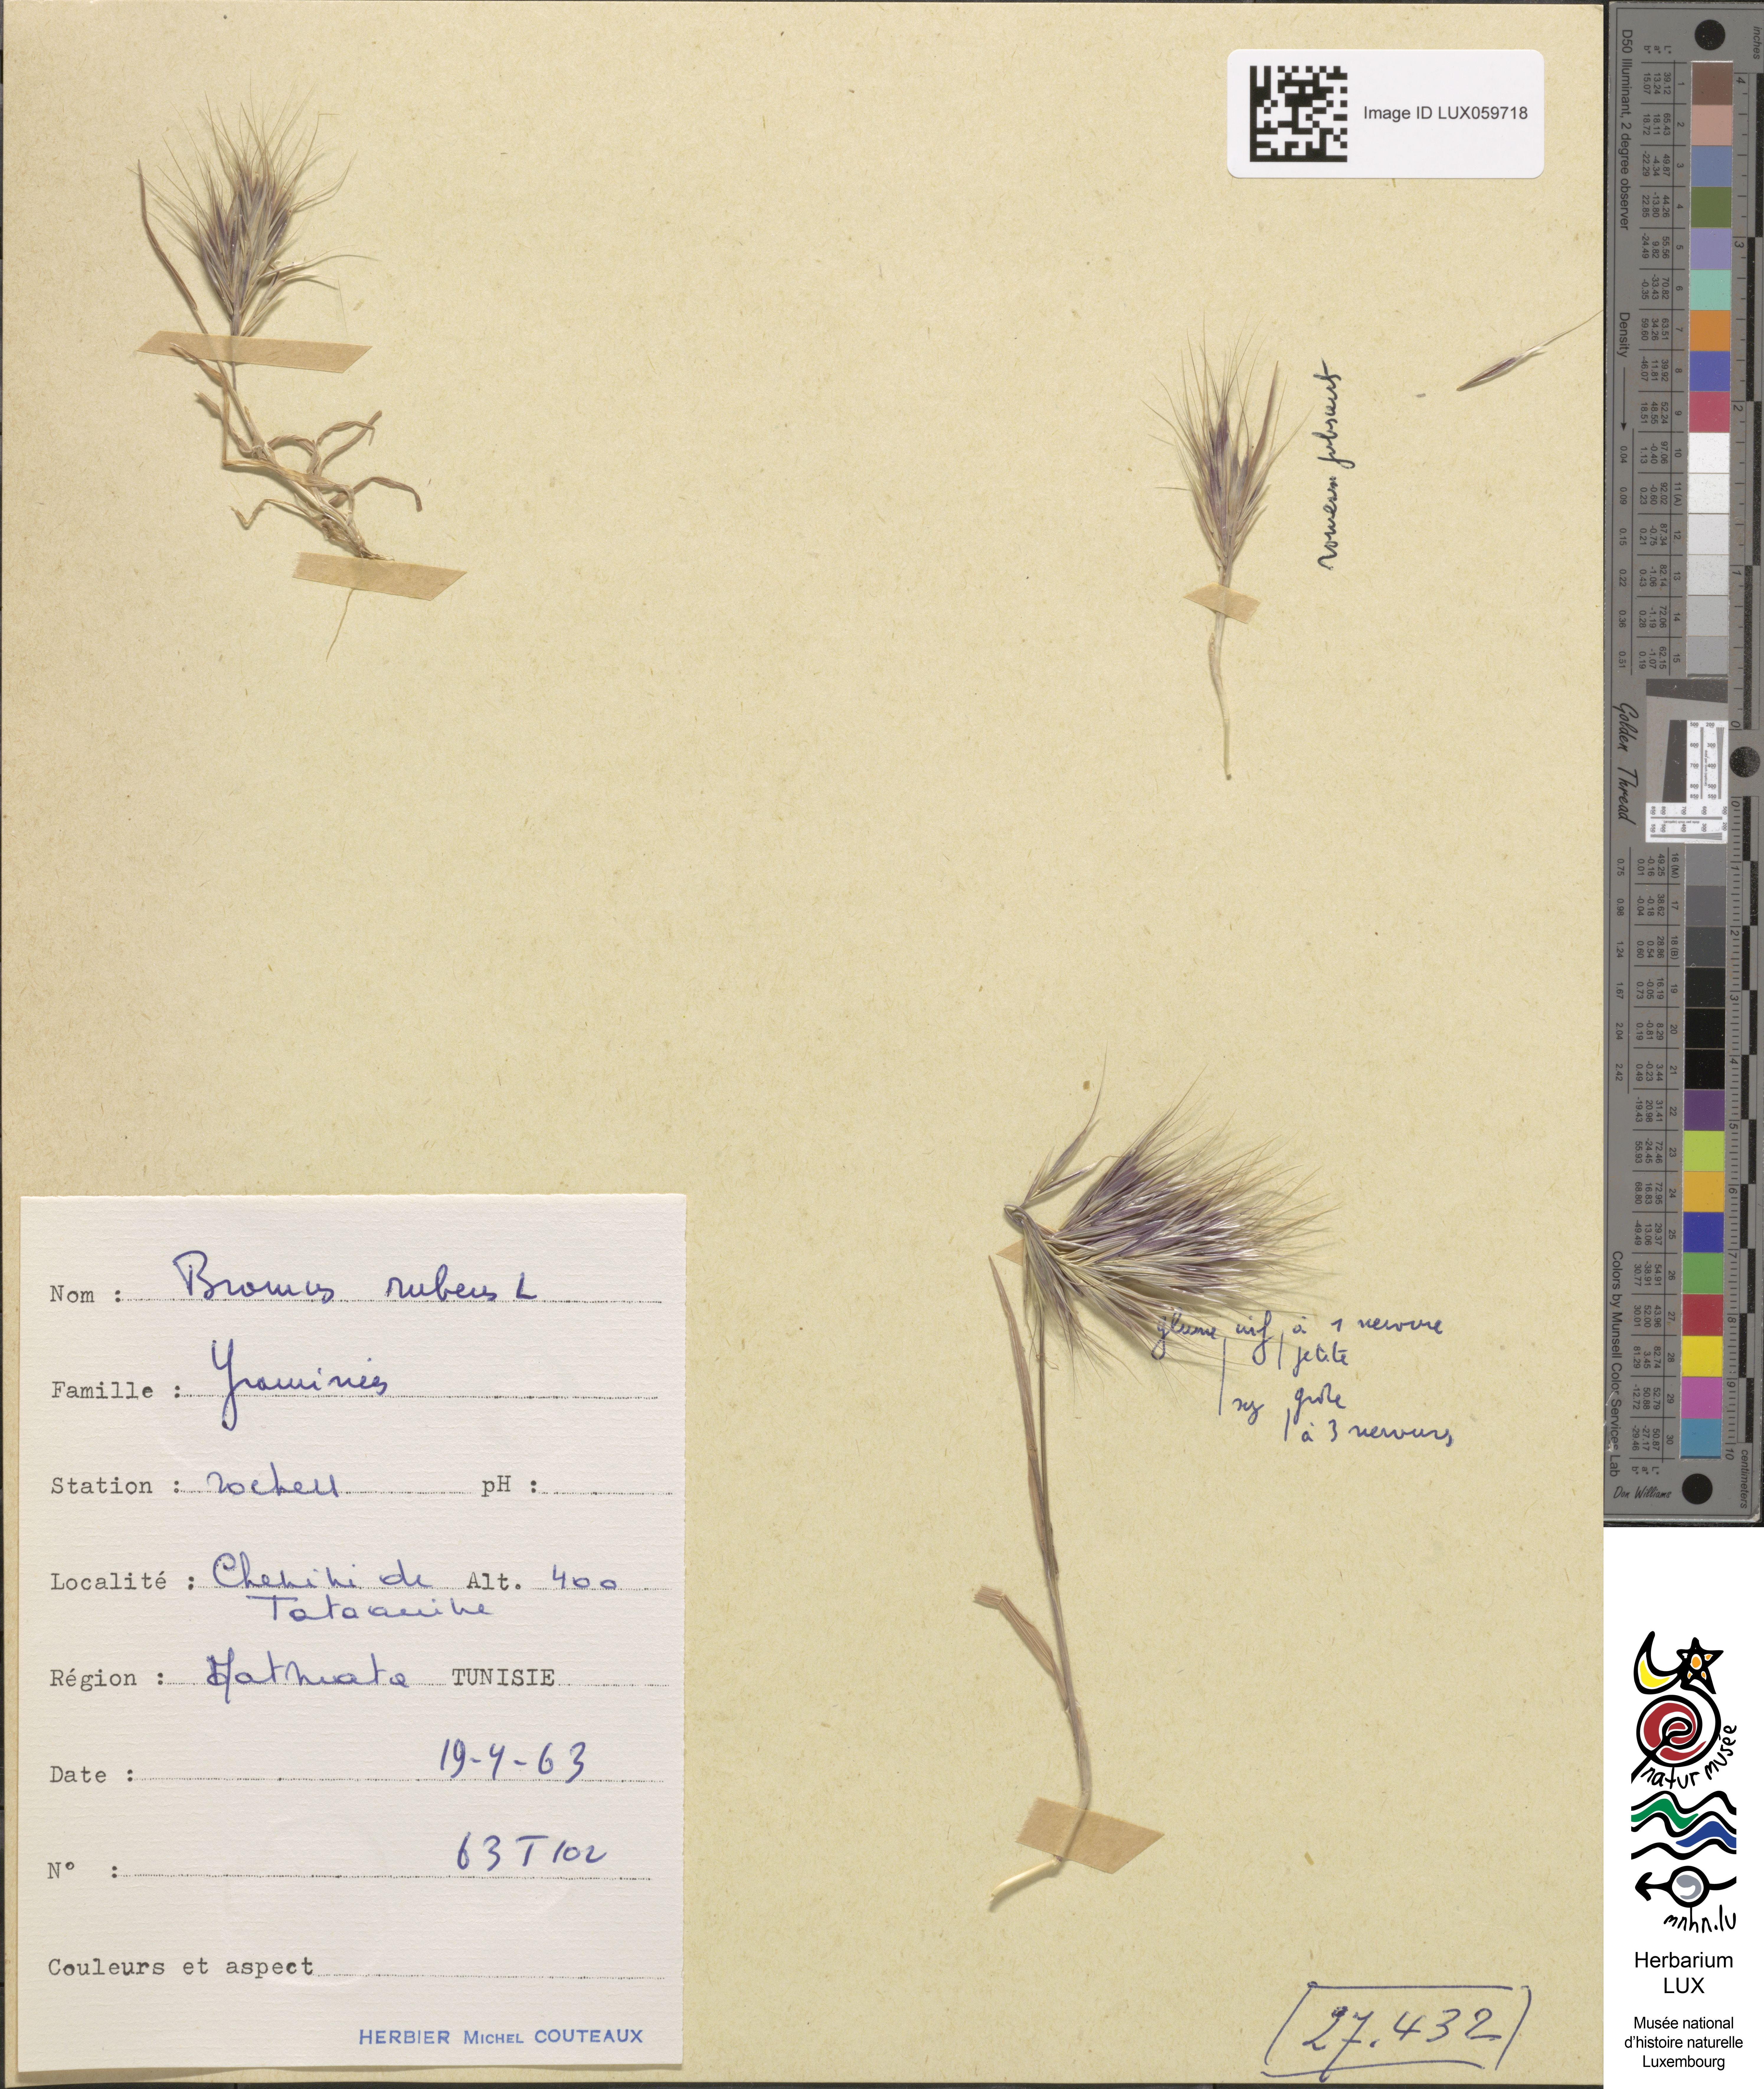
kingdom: Plantae
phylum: Tracheophyta
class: Liliopsida
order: Poales
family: Poaceae
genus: Bromus
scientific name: Bromus rubens
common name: Red brome
